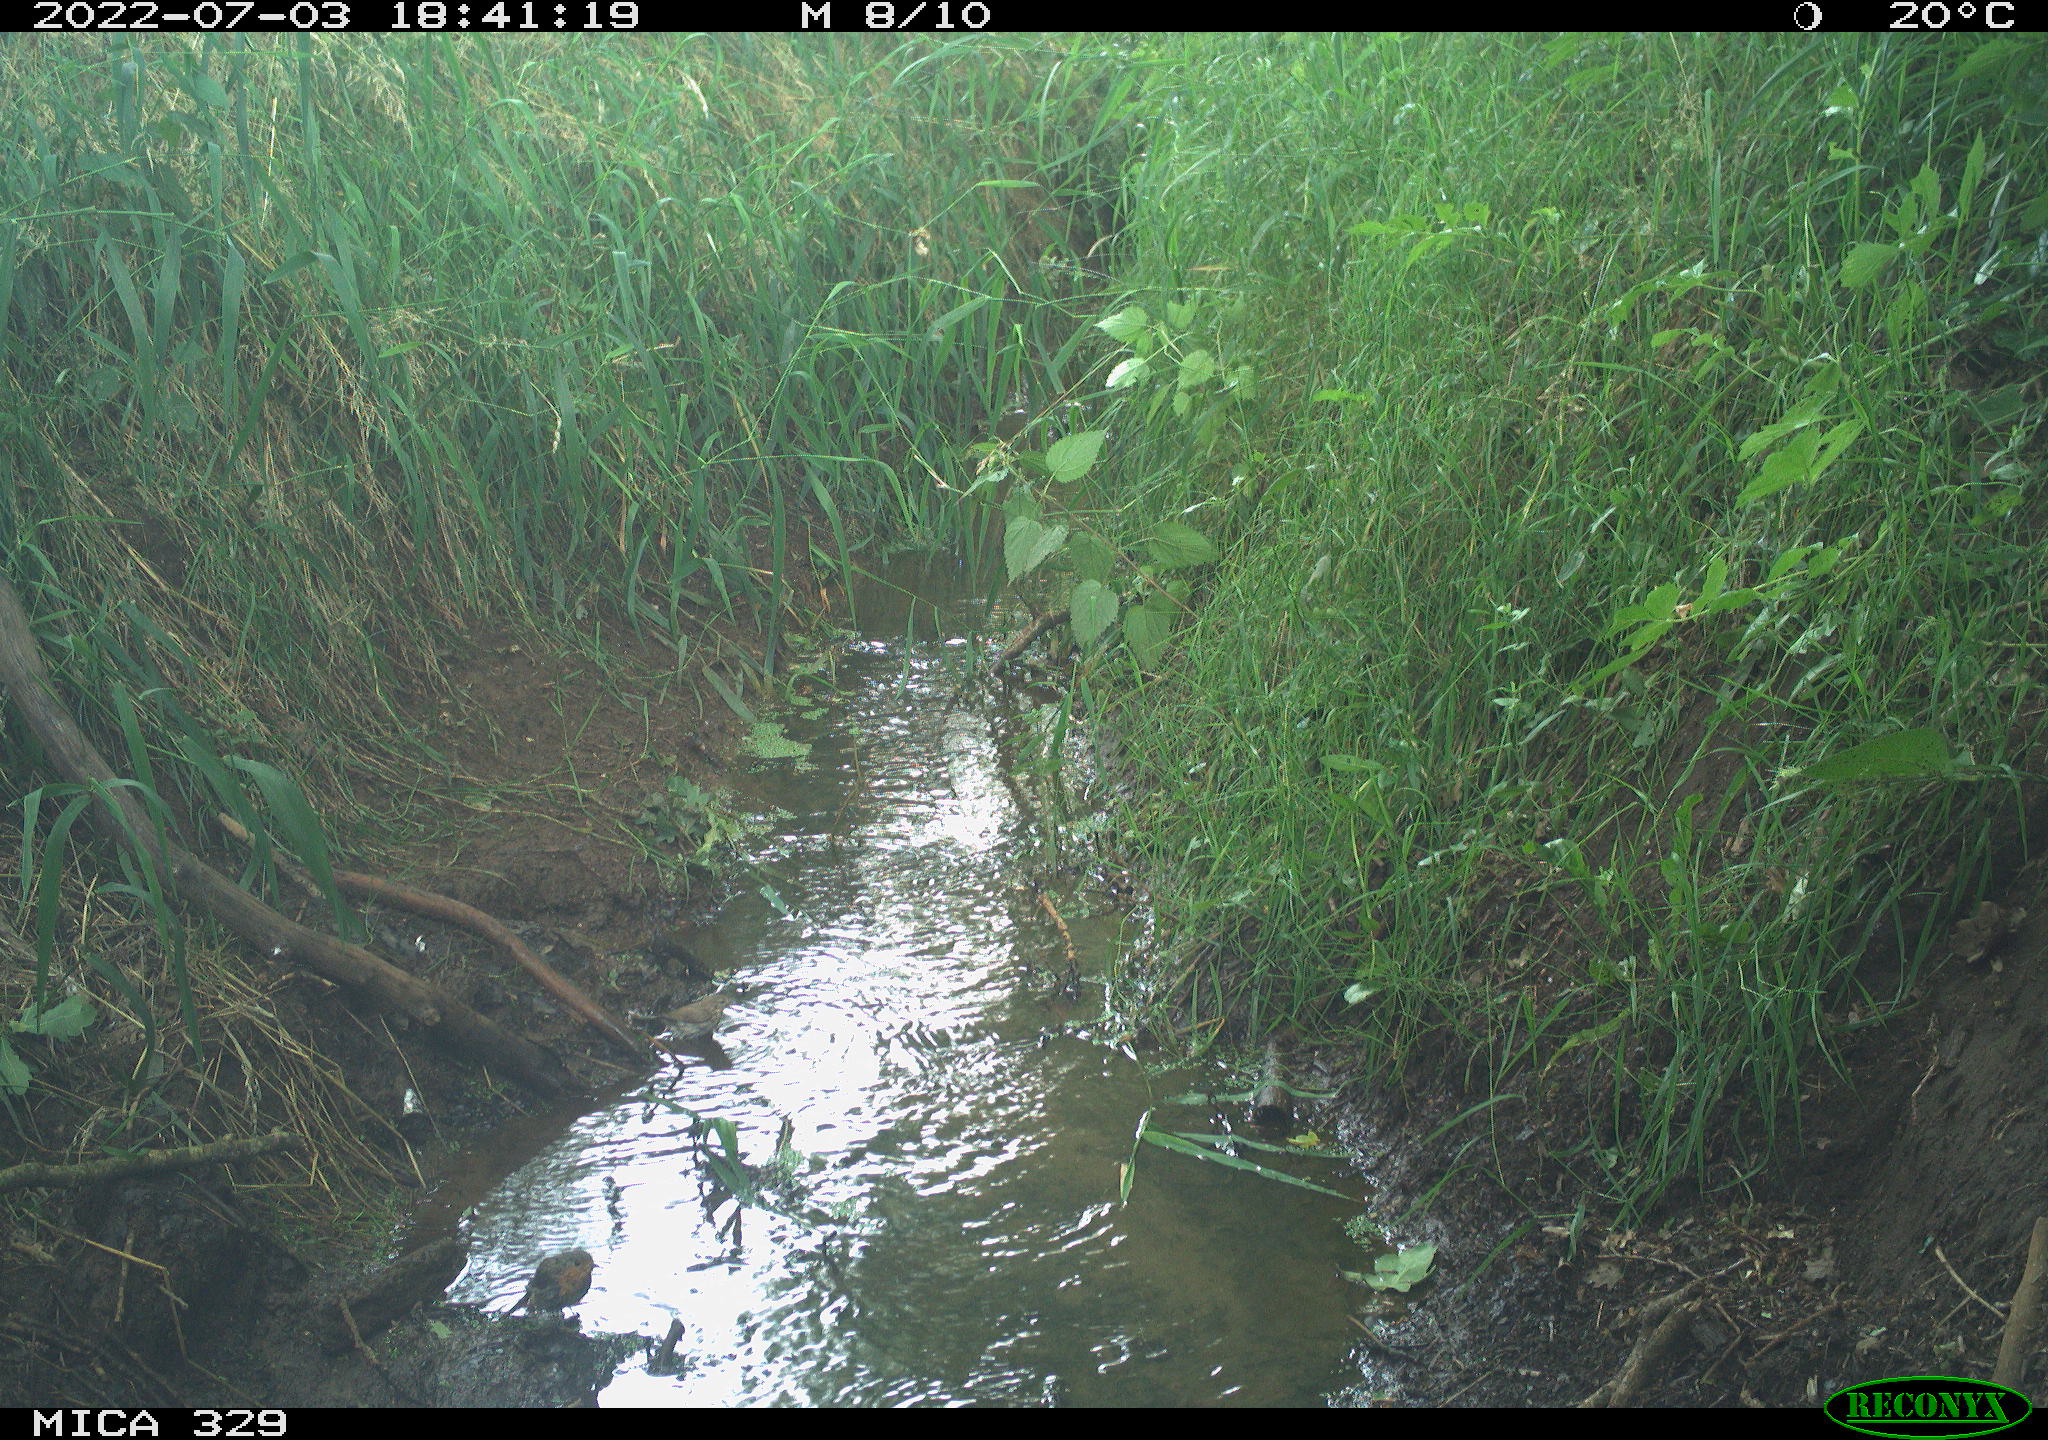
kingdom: Animalia
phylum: Chordata
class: Aves
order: Passeriformes
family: Muscicapidae
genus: Erithacus
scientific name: Erithacus rubecula
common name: European robin
